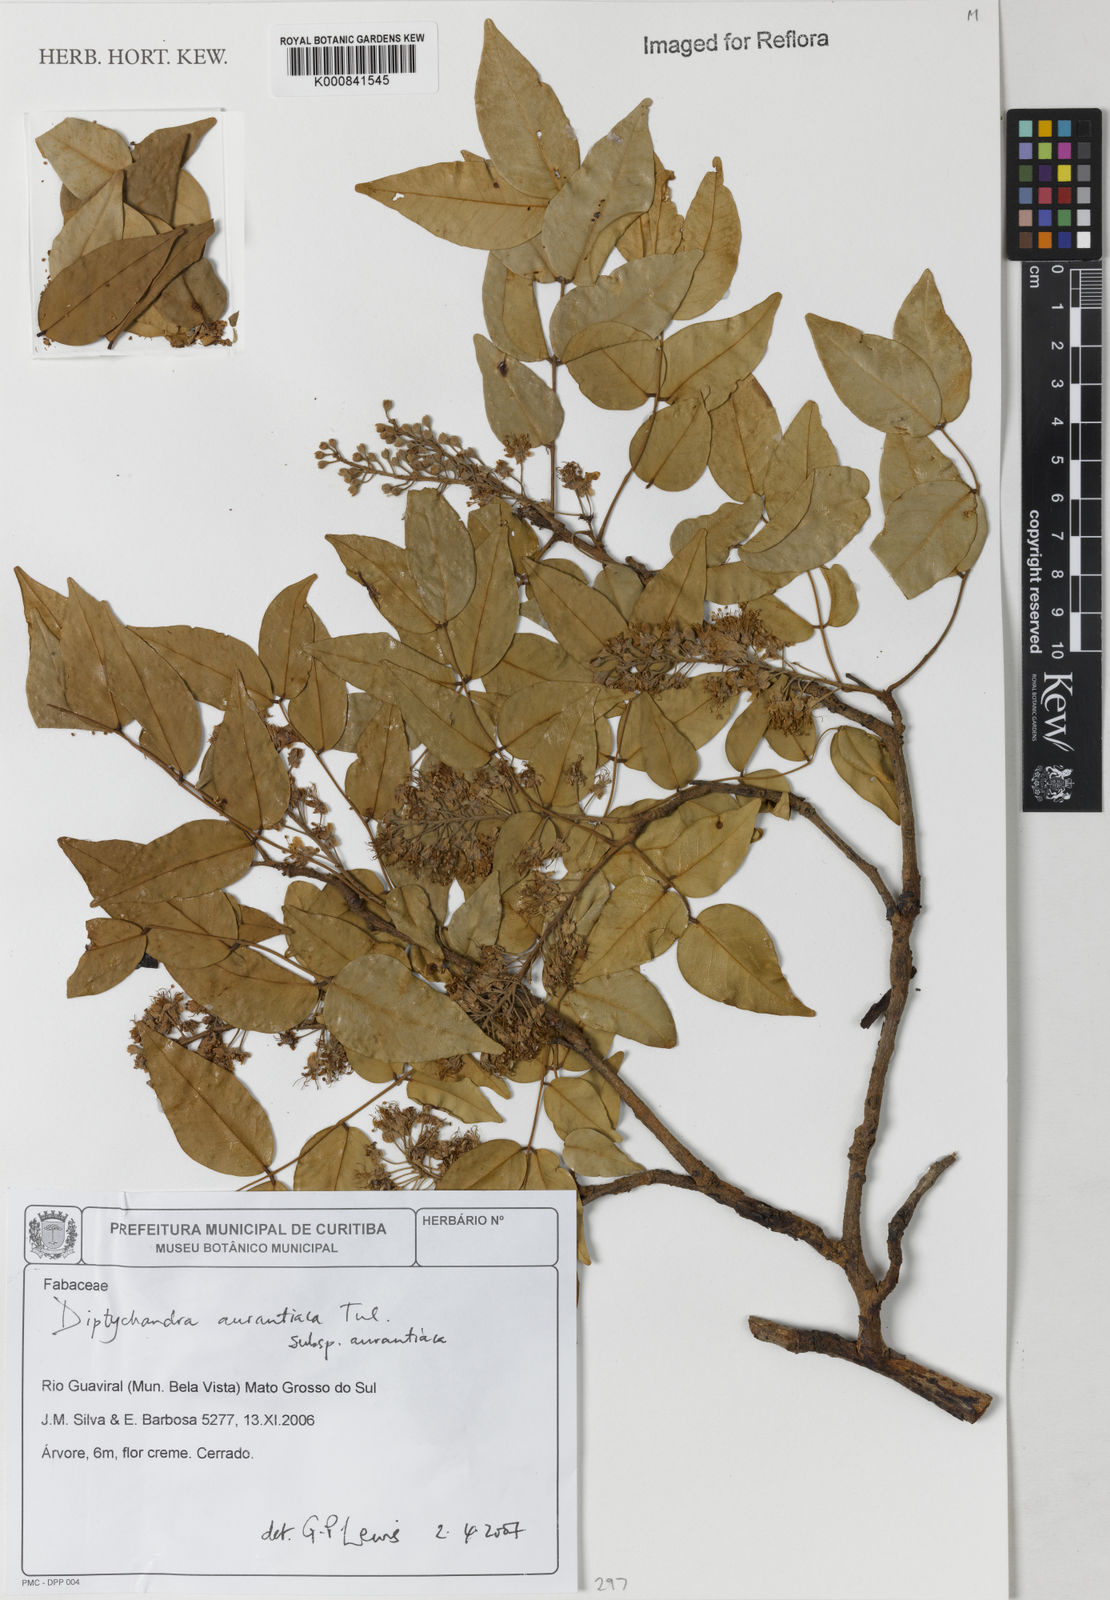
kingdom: Plantae
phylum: Tracheophyta
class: Magnoliopsida
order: Fabales
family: Fabaceae
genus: Diptychandra
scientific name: Diptychandra aurantiaca
